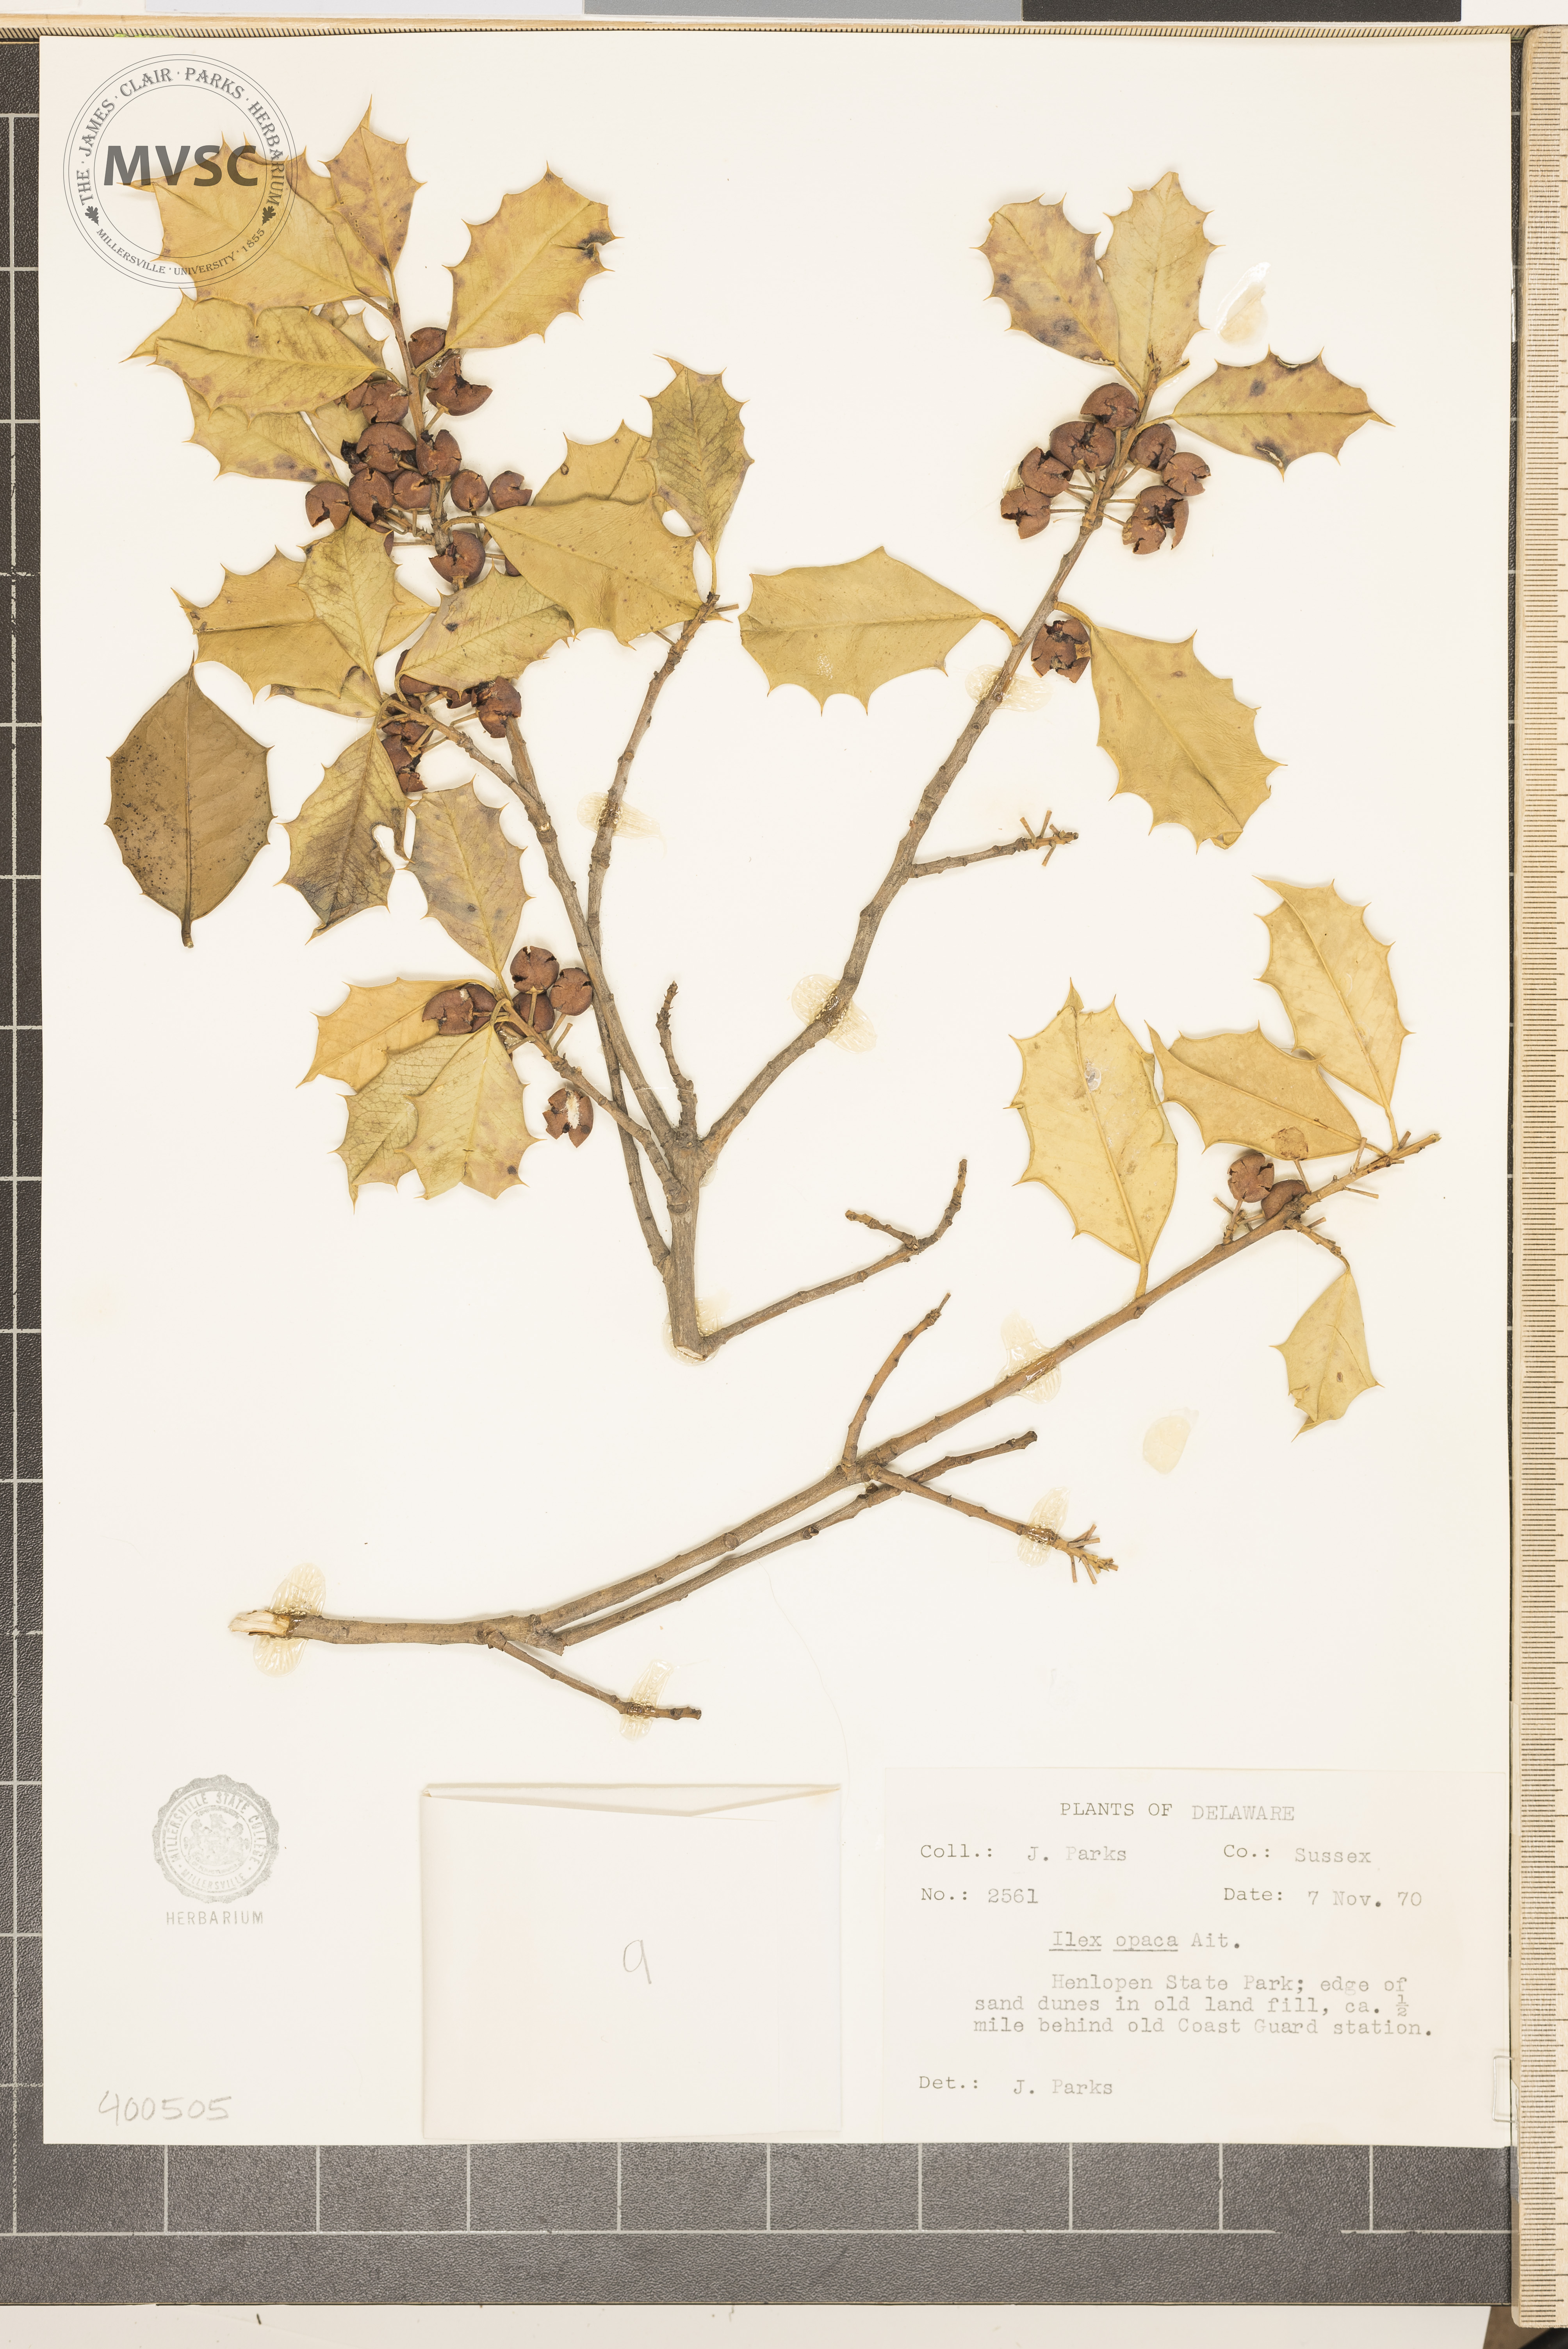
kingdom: Plantae
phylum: Tracheophyta
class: Magnoliopsida
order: Aquifoliales
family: Aquifoliaceae
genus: Ilex
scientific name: Ilex opaca
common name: American holly
